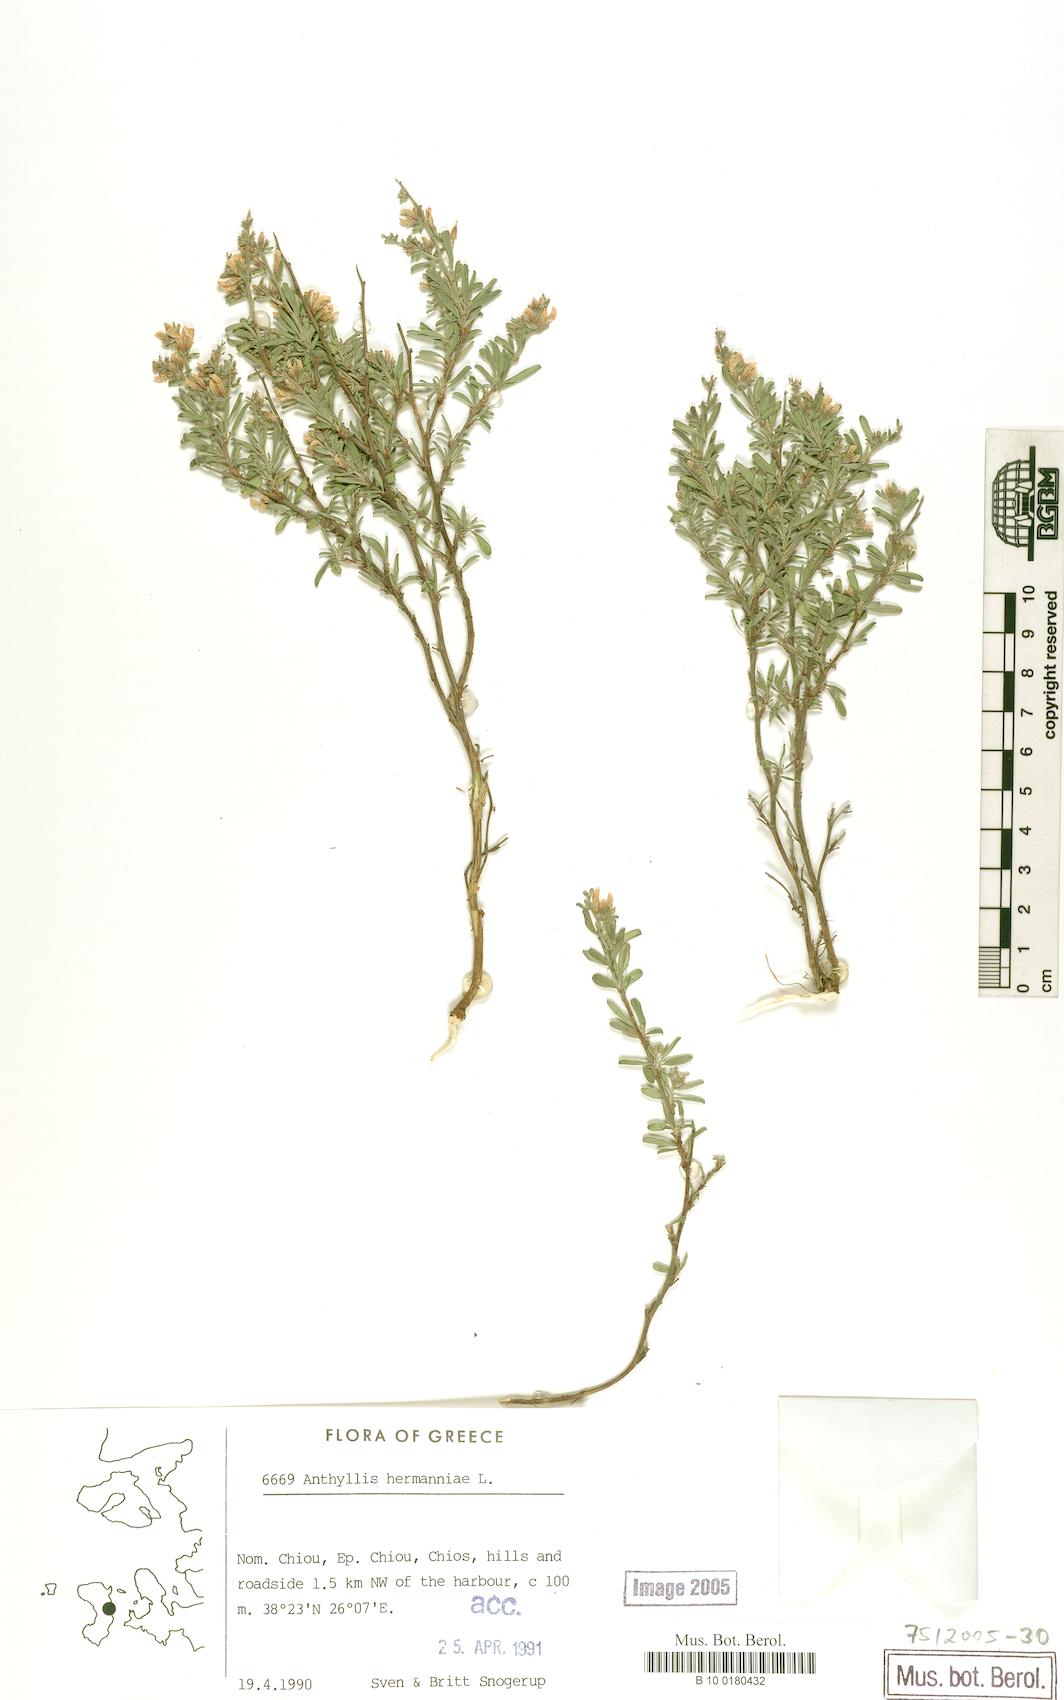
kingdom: Plantae
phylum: Tracheophyta
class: Magnoliopsida
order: Fabales
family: Fabaceae
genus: Anthyllis
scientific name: Anthyllis hermanniae
